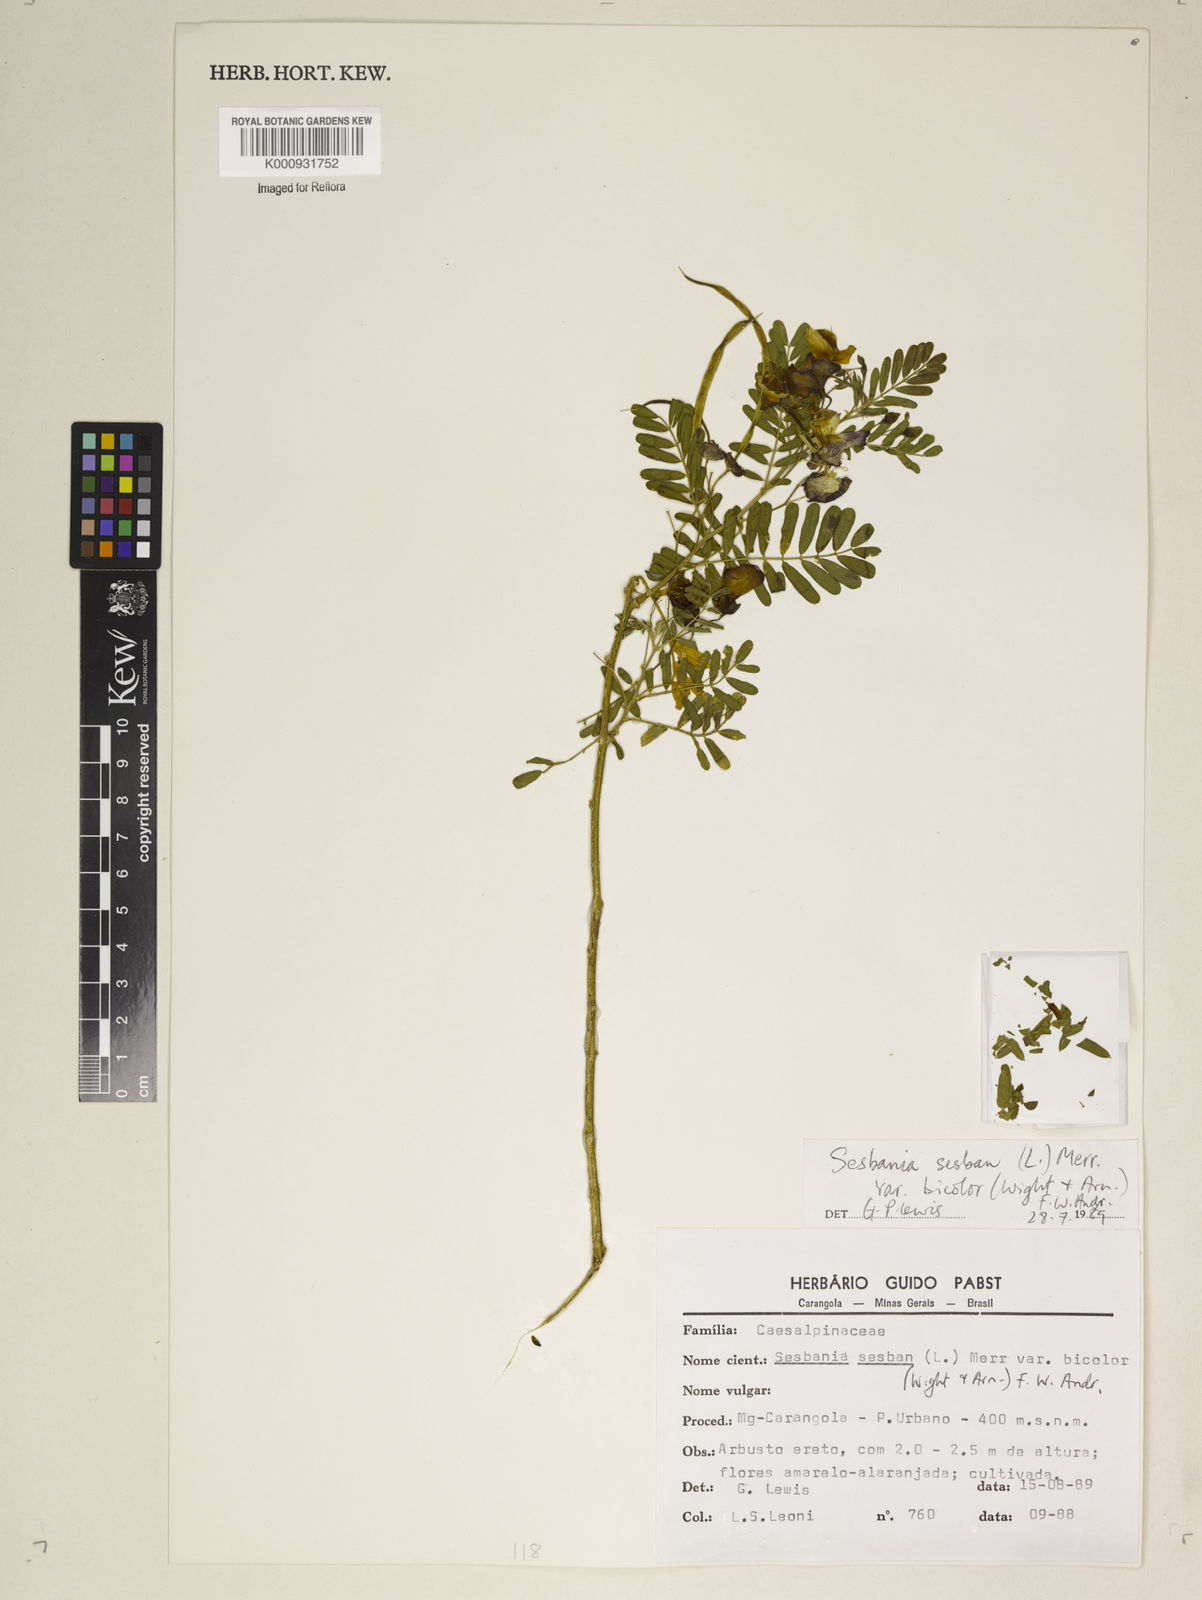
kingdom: Plantae
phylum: Tracheophyta
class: Magnoliopsida
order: Fabales
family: Fabaceae
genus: Sesbania
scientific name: Sesbania
